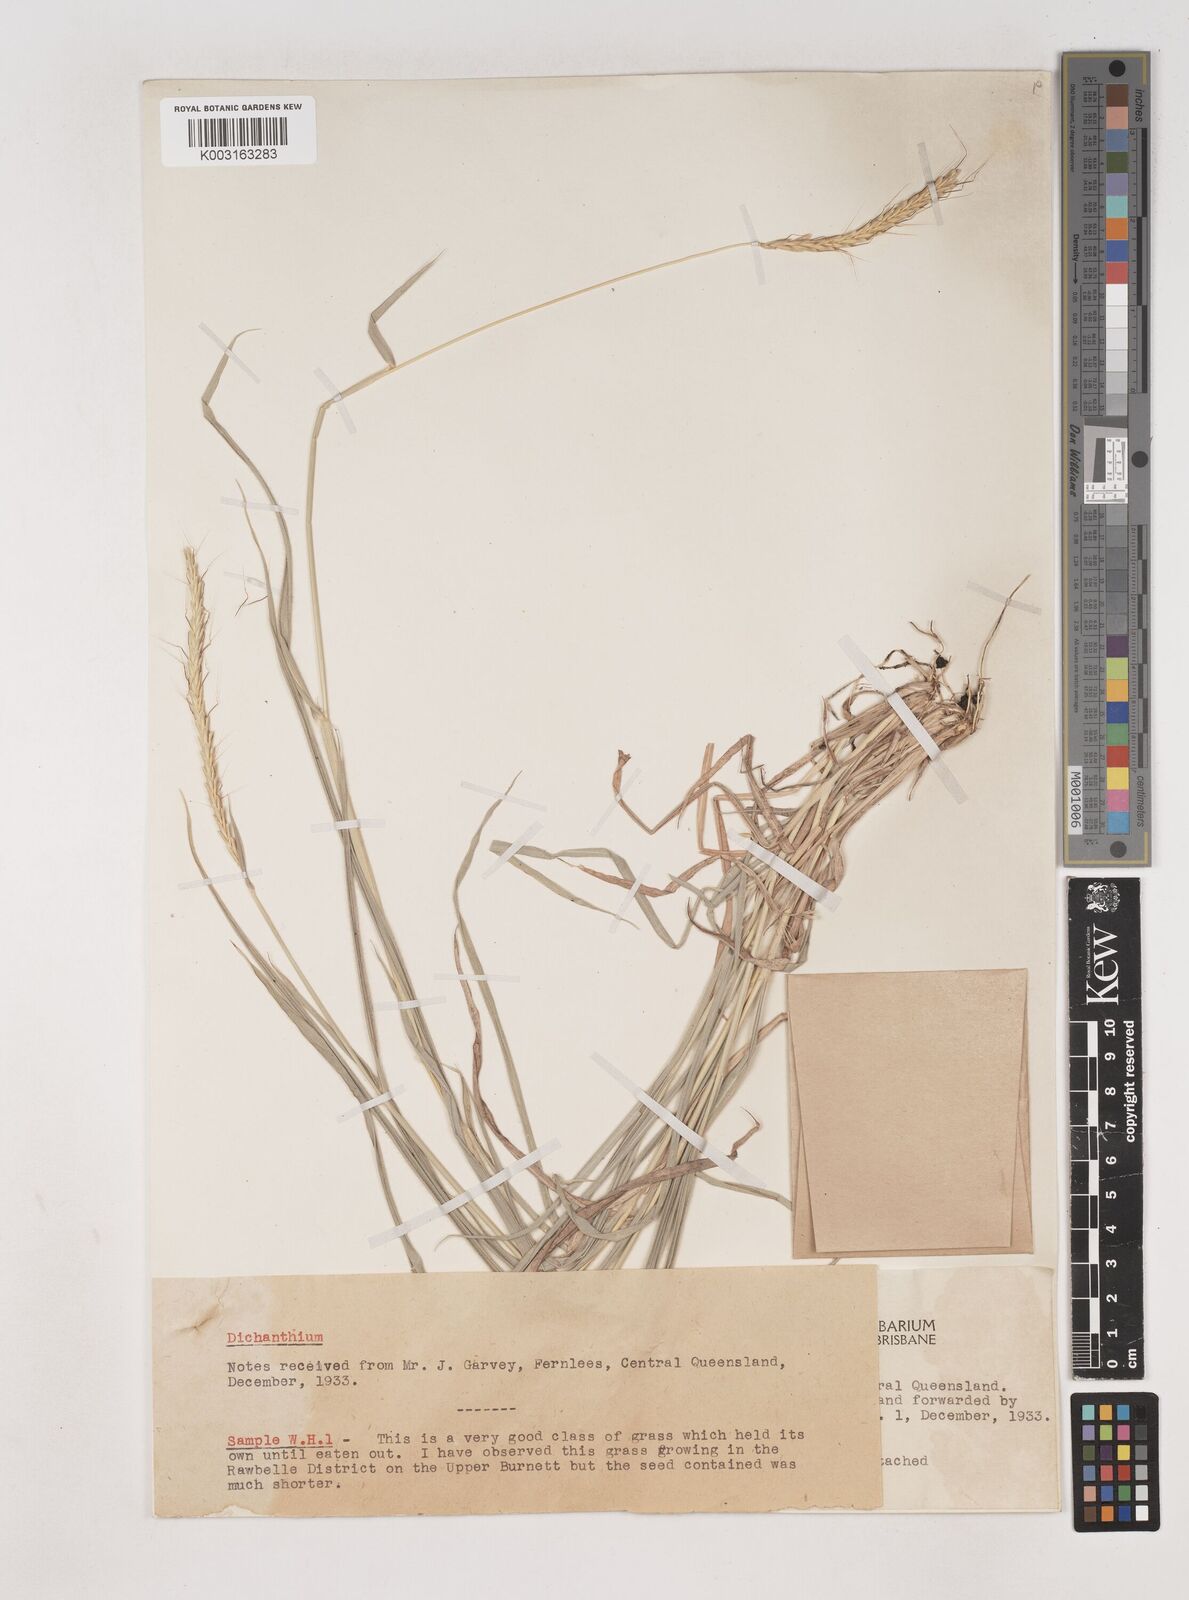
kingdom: Plantae
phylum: Tracheophyta
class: Liliopsida
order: Poales
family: Poaceae
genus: Dichanthium
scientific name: Dichanthium queenslandicum
